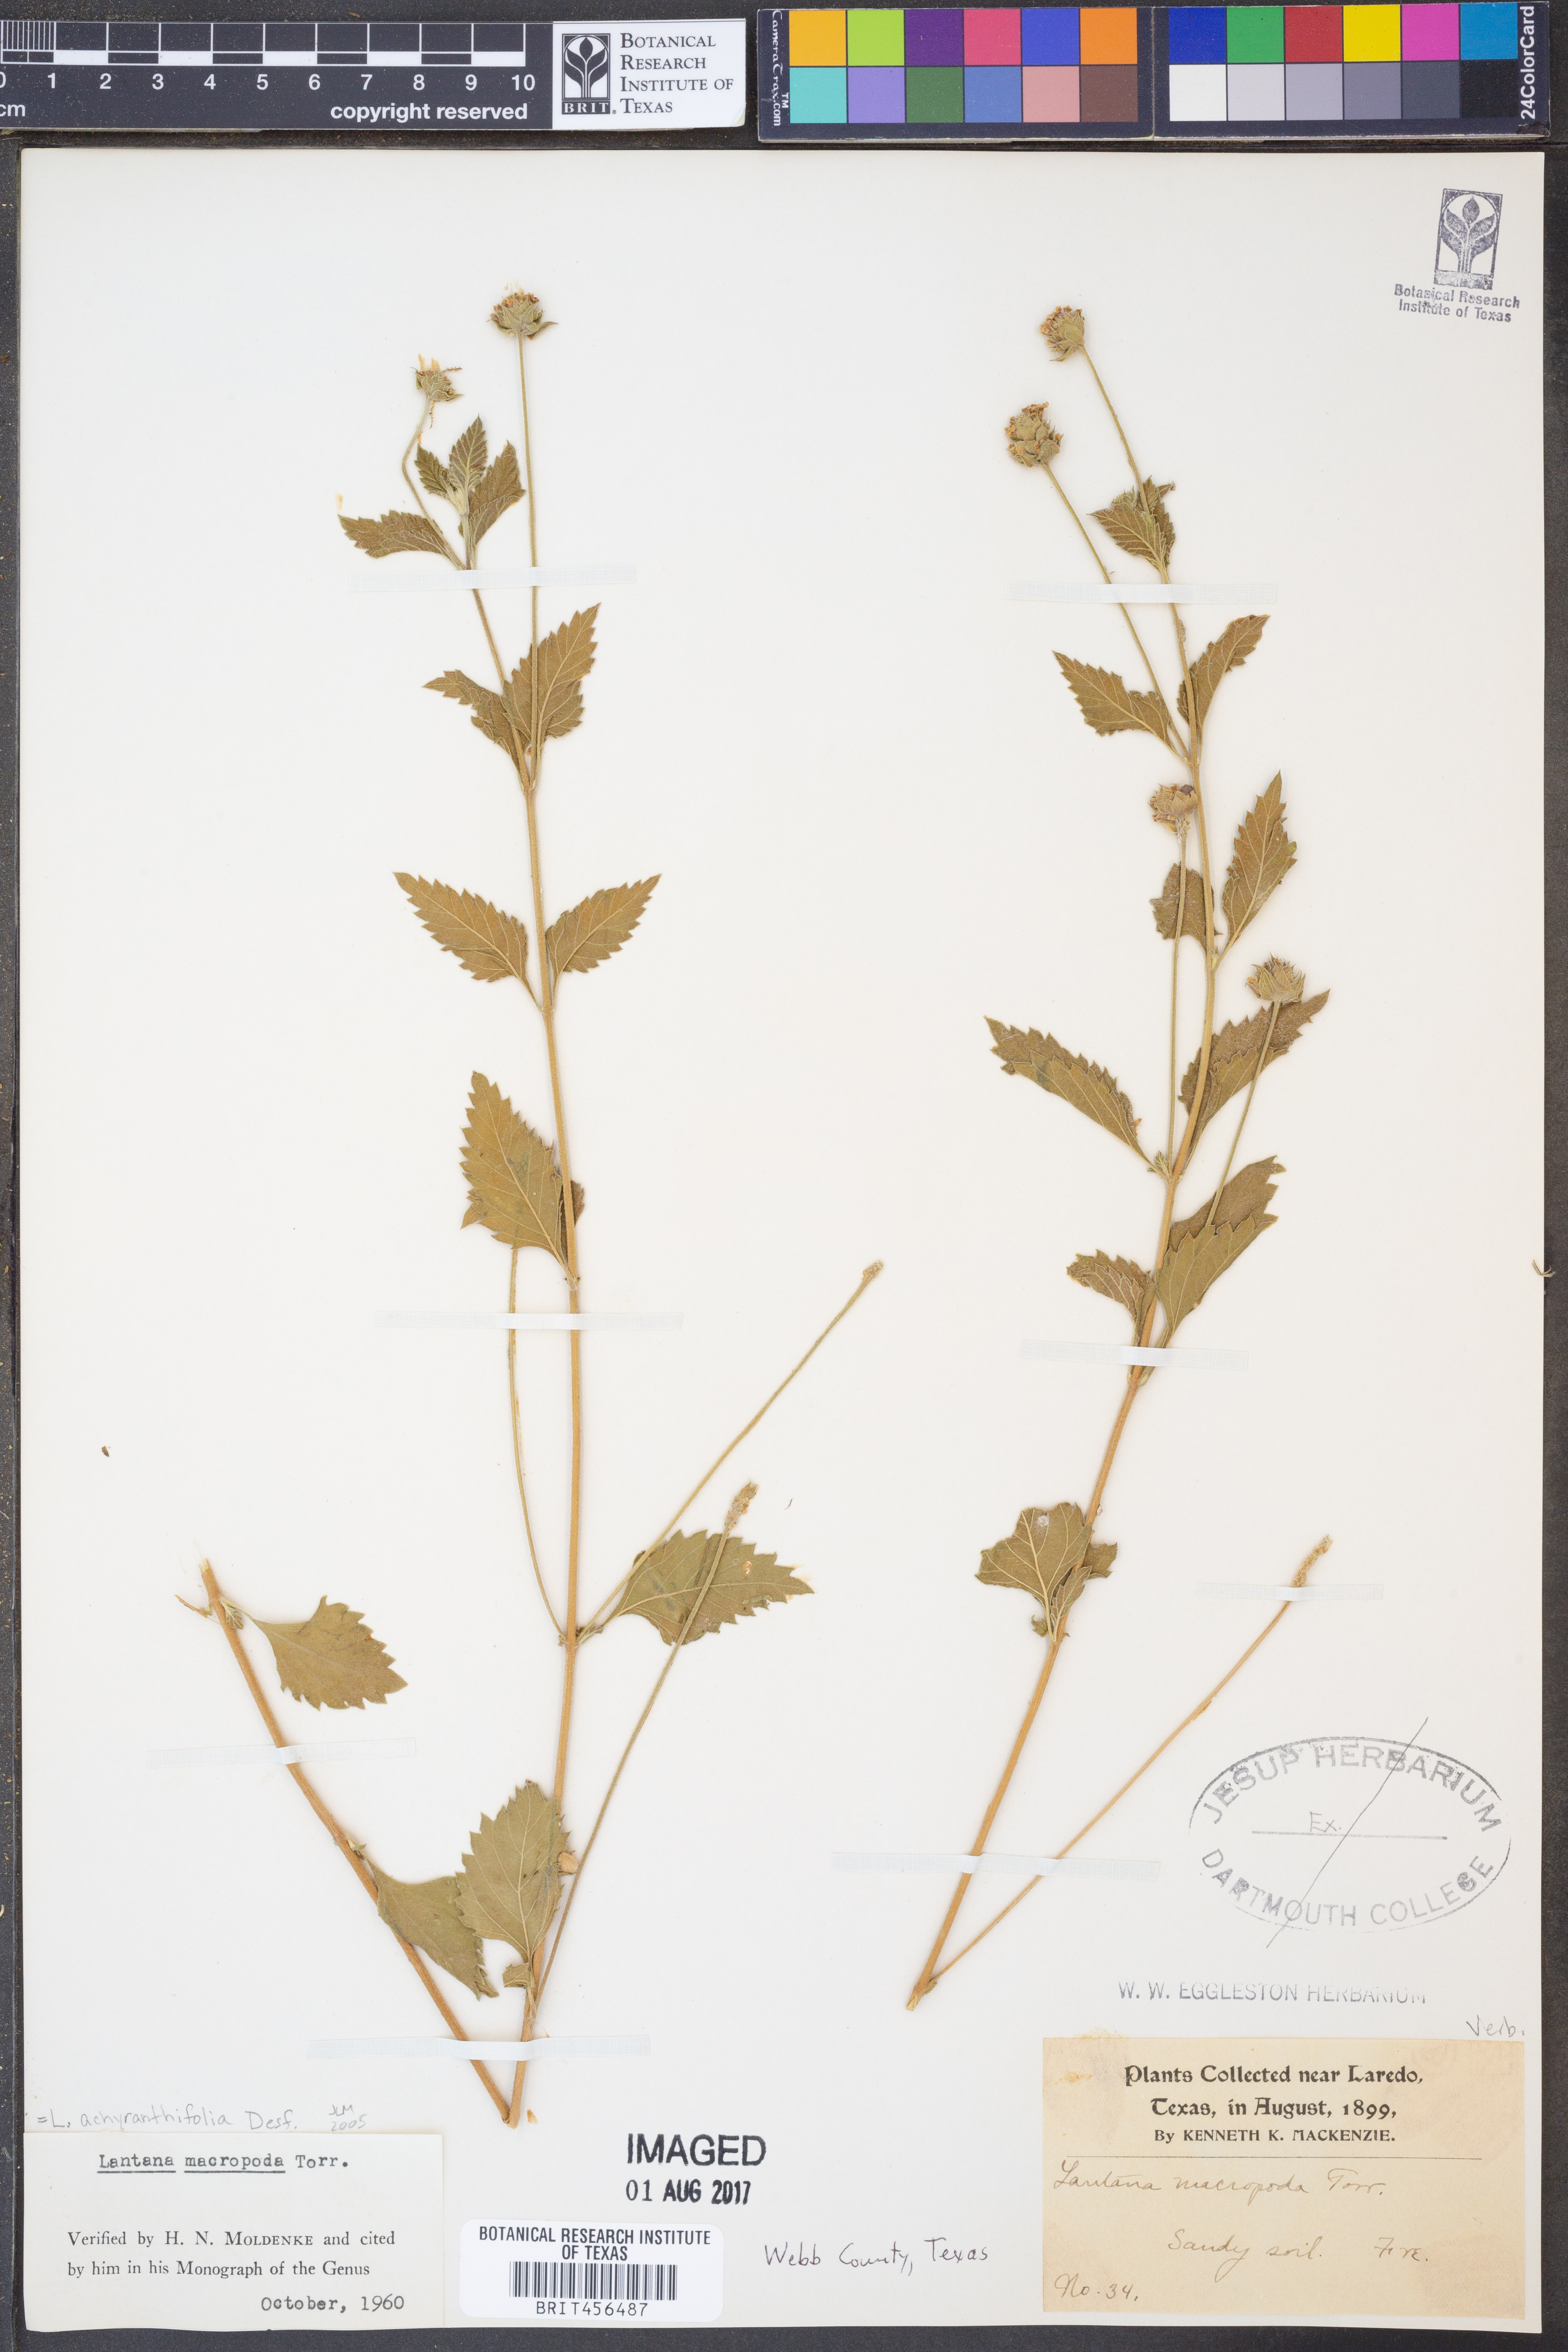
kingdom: Plantae
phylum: Tracheophyta
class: Magnoliopsida
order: Lamiales
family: Verbenaceae
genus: Lantana
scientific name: Lantana achyranthifolia
